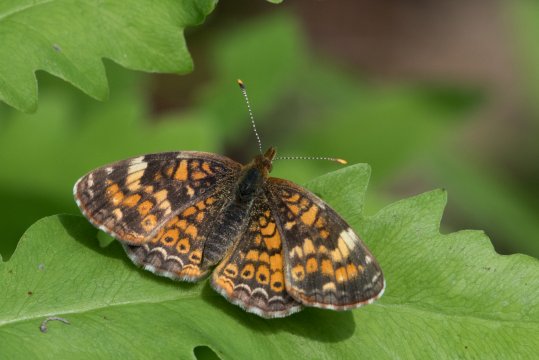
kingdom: Animalia
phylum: Arthropoda
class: Insecta
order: Lepidoptera
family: Nymphalidae
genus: Phyciodes
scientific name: Phyciodes
